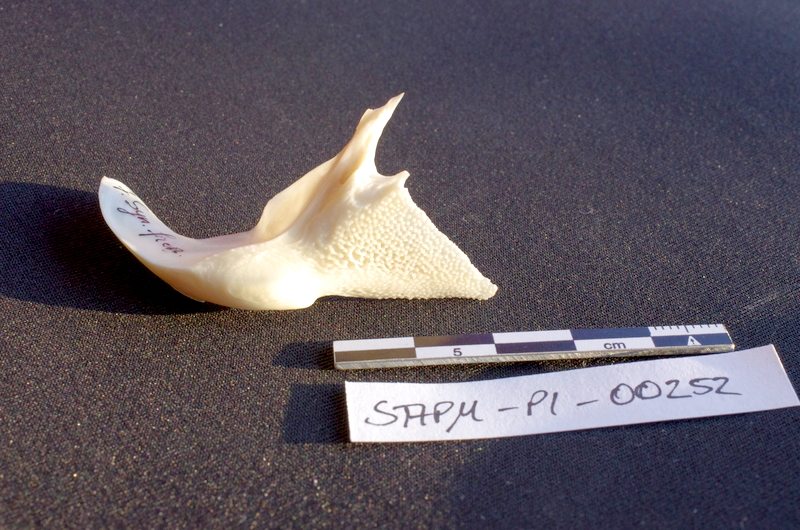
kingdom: Animalia
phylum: Chordata
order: Siluriformes
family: Mochokidae
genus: Synodontis
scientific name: Synodontis frontosus
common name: Sudan squeaker
